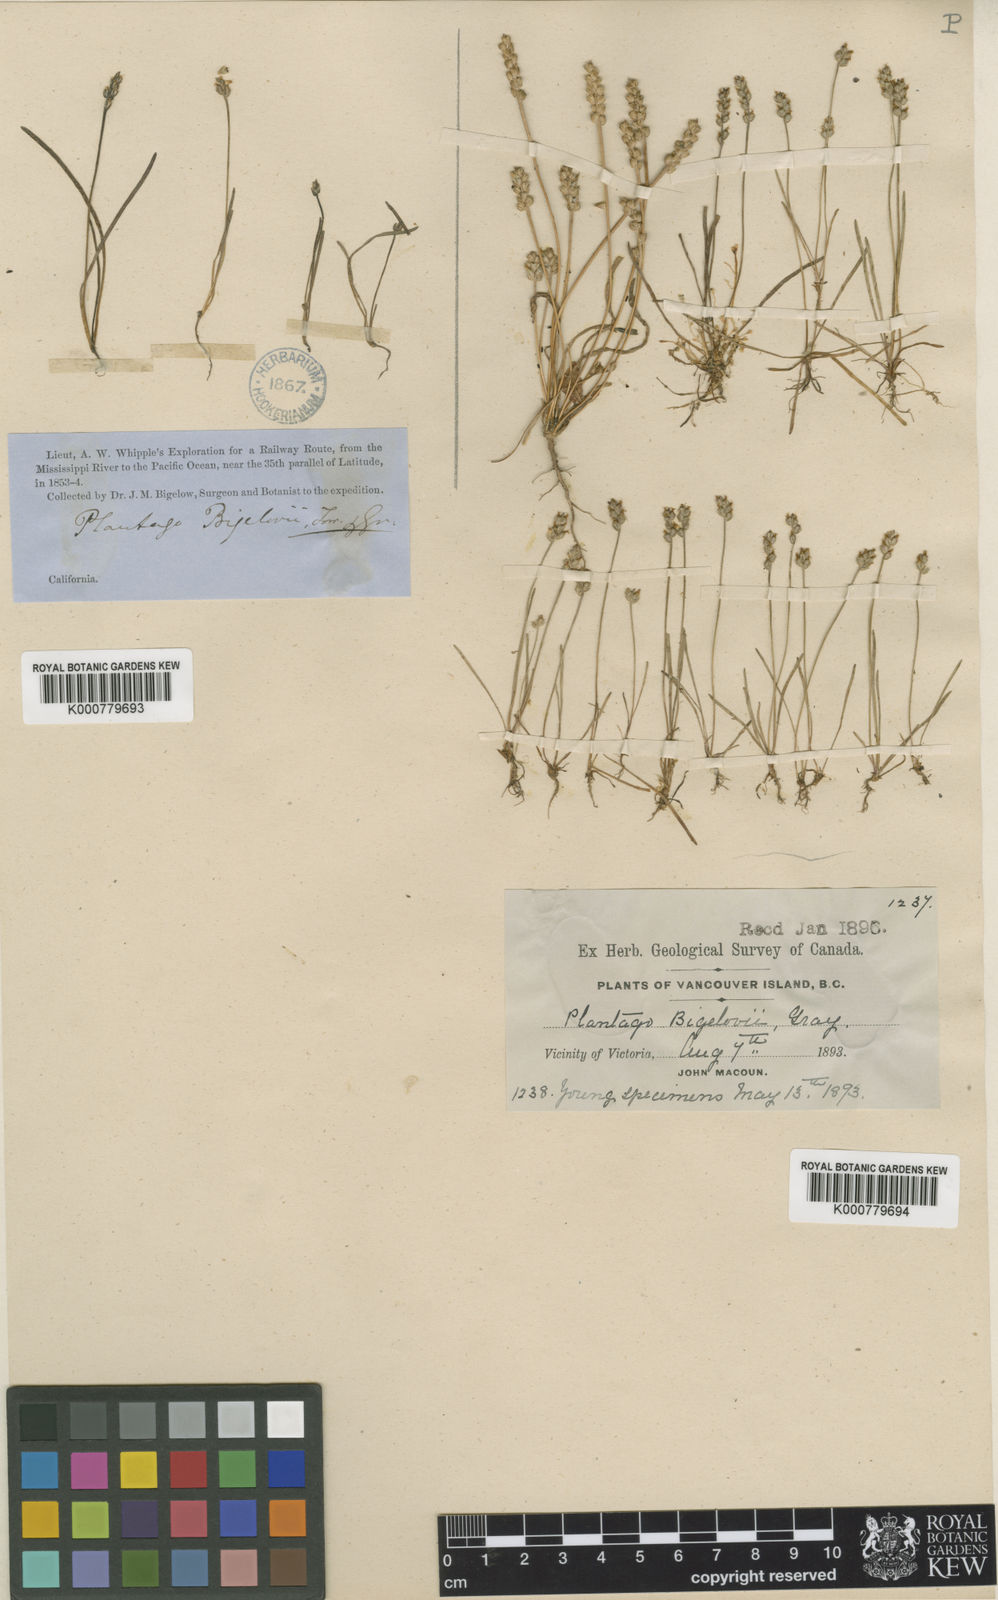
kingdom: Plantae
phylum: Tracheophyta
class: Magnoliopsida
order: Lamiales
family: Plantaginaceae
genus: Plantago
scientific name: Plantago elongata
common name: Linear-leaved plantain
